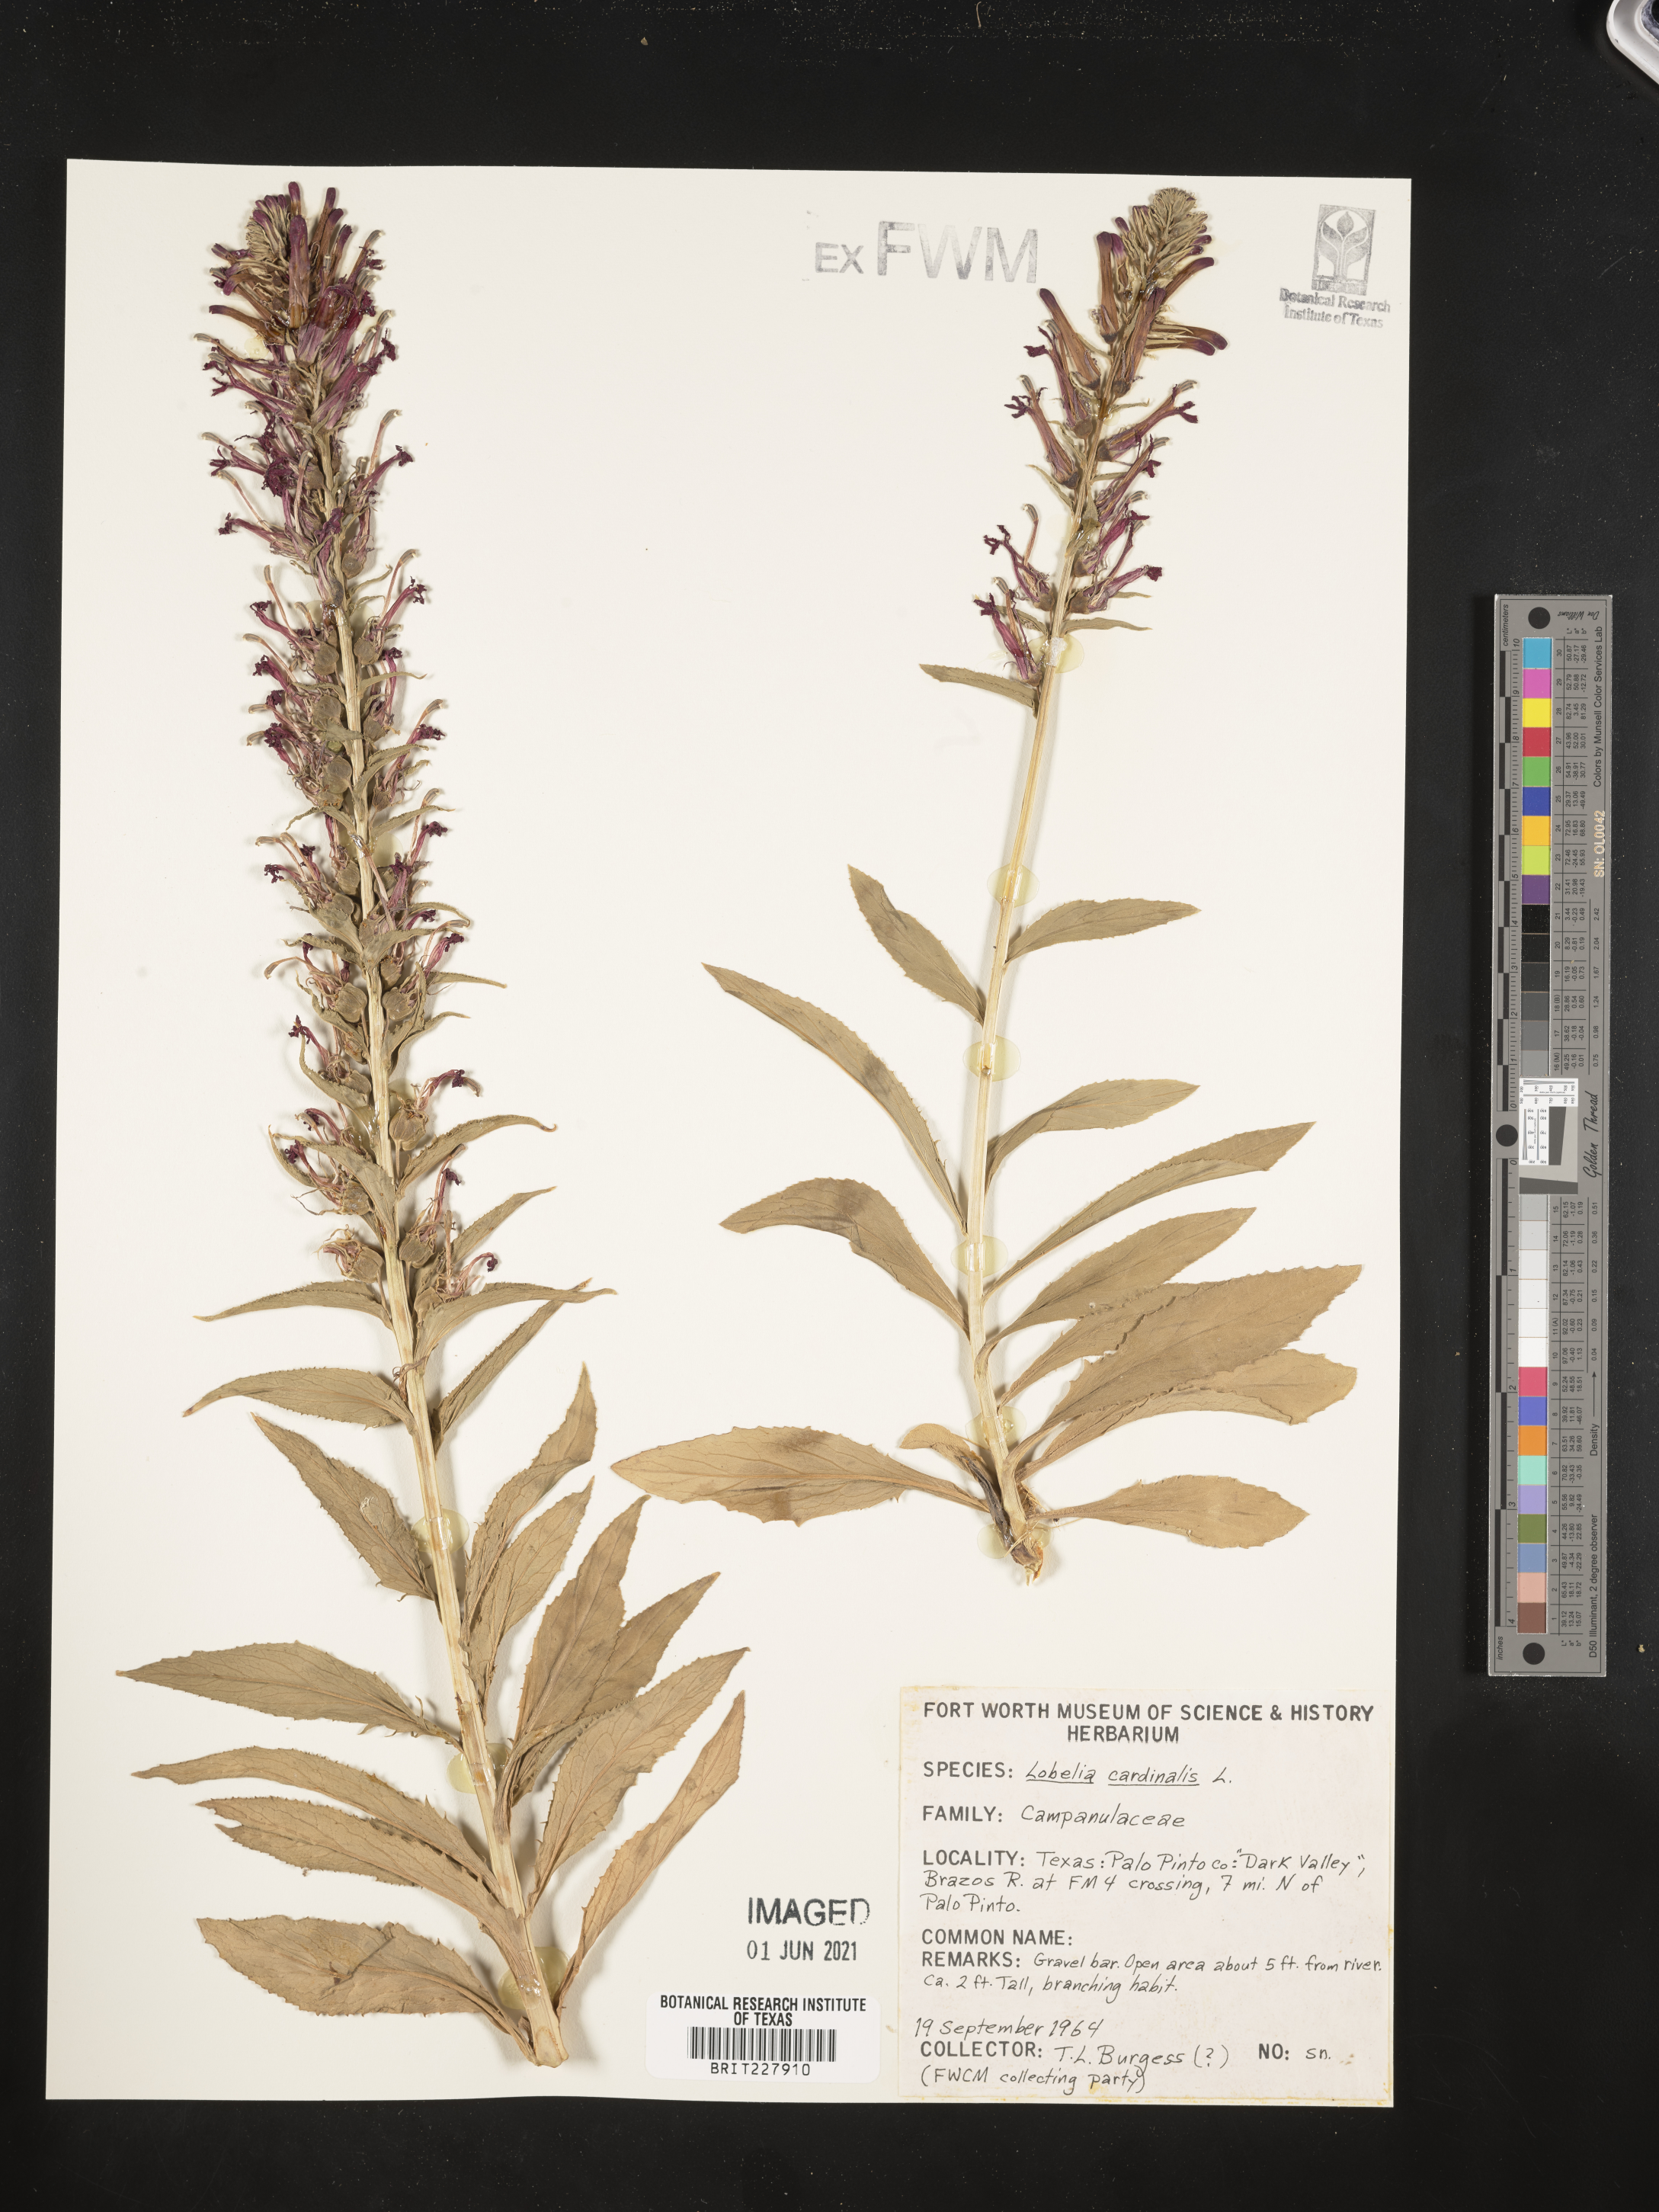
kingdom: Plantae
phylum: Tracheophyta
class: Magnoliopsida
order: Asterales
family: Campanulaceae
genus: Lobelia
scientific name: Lobelia cardinalis
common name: Cardinal flower
